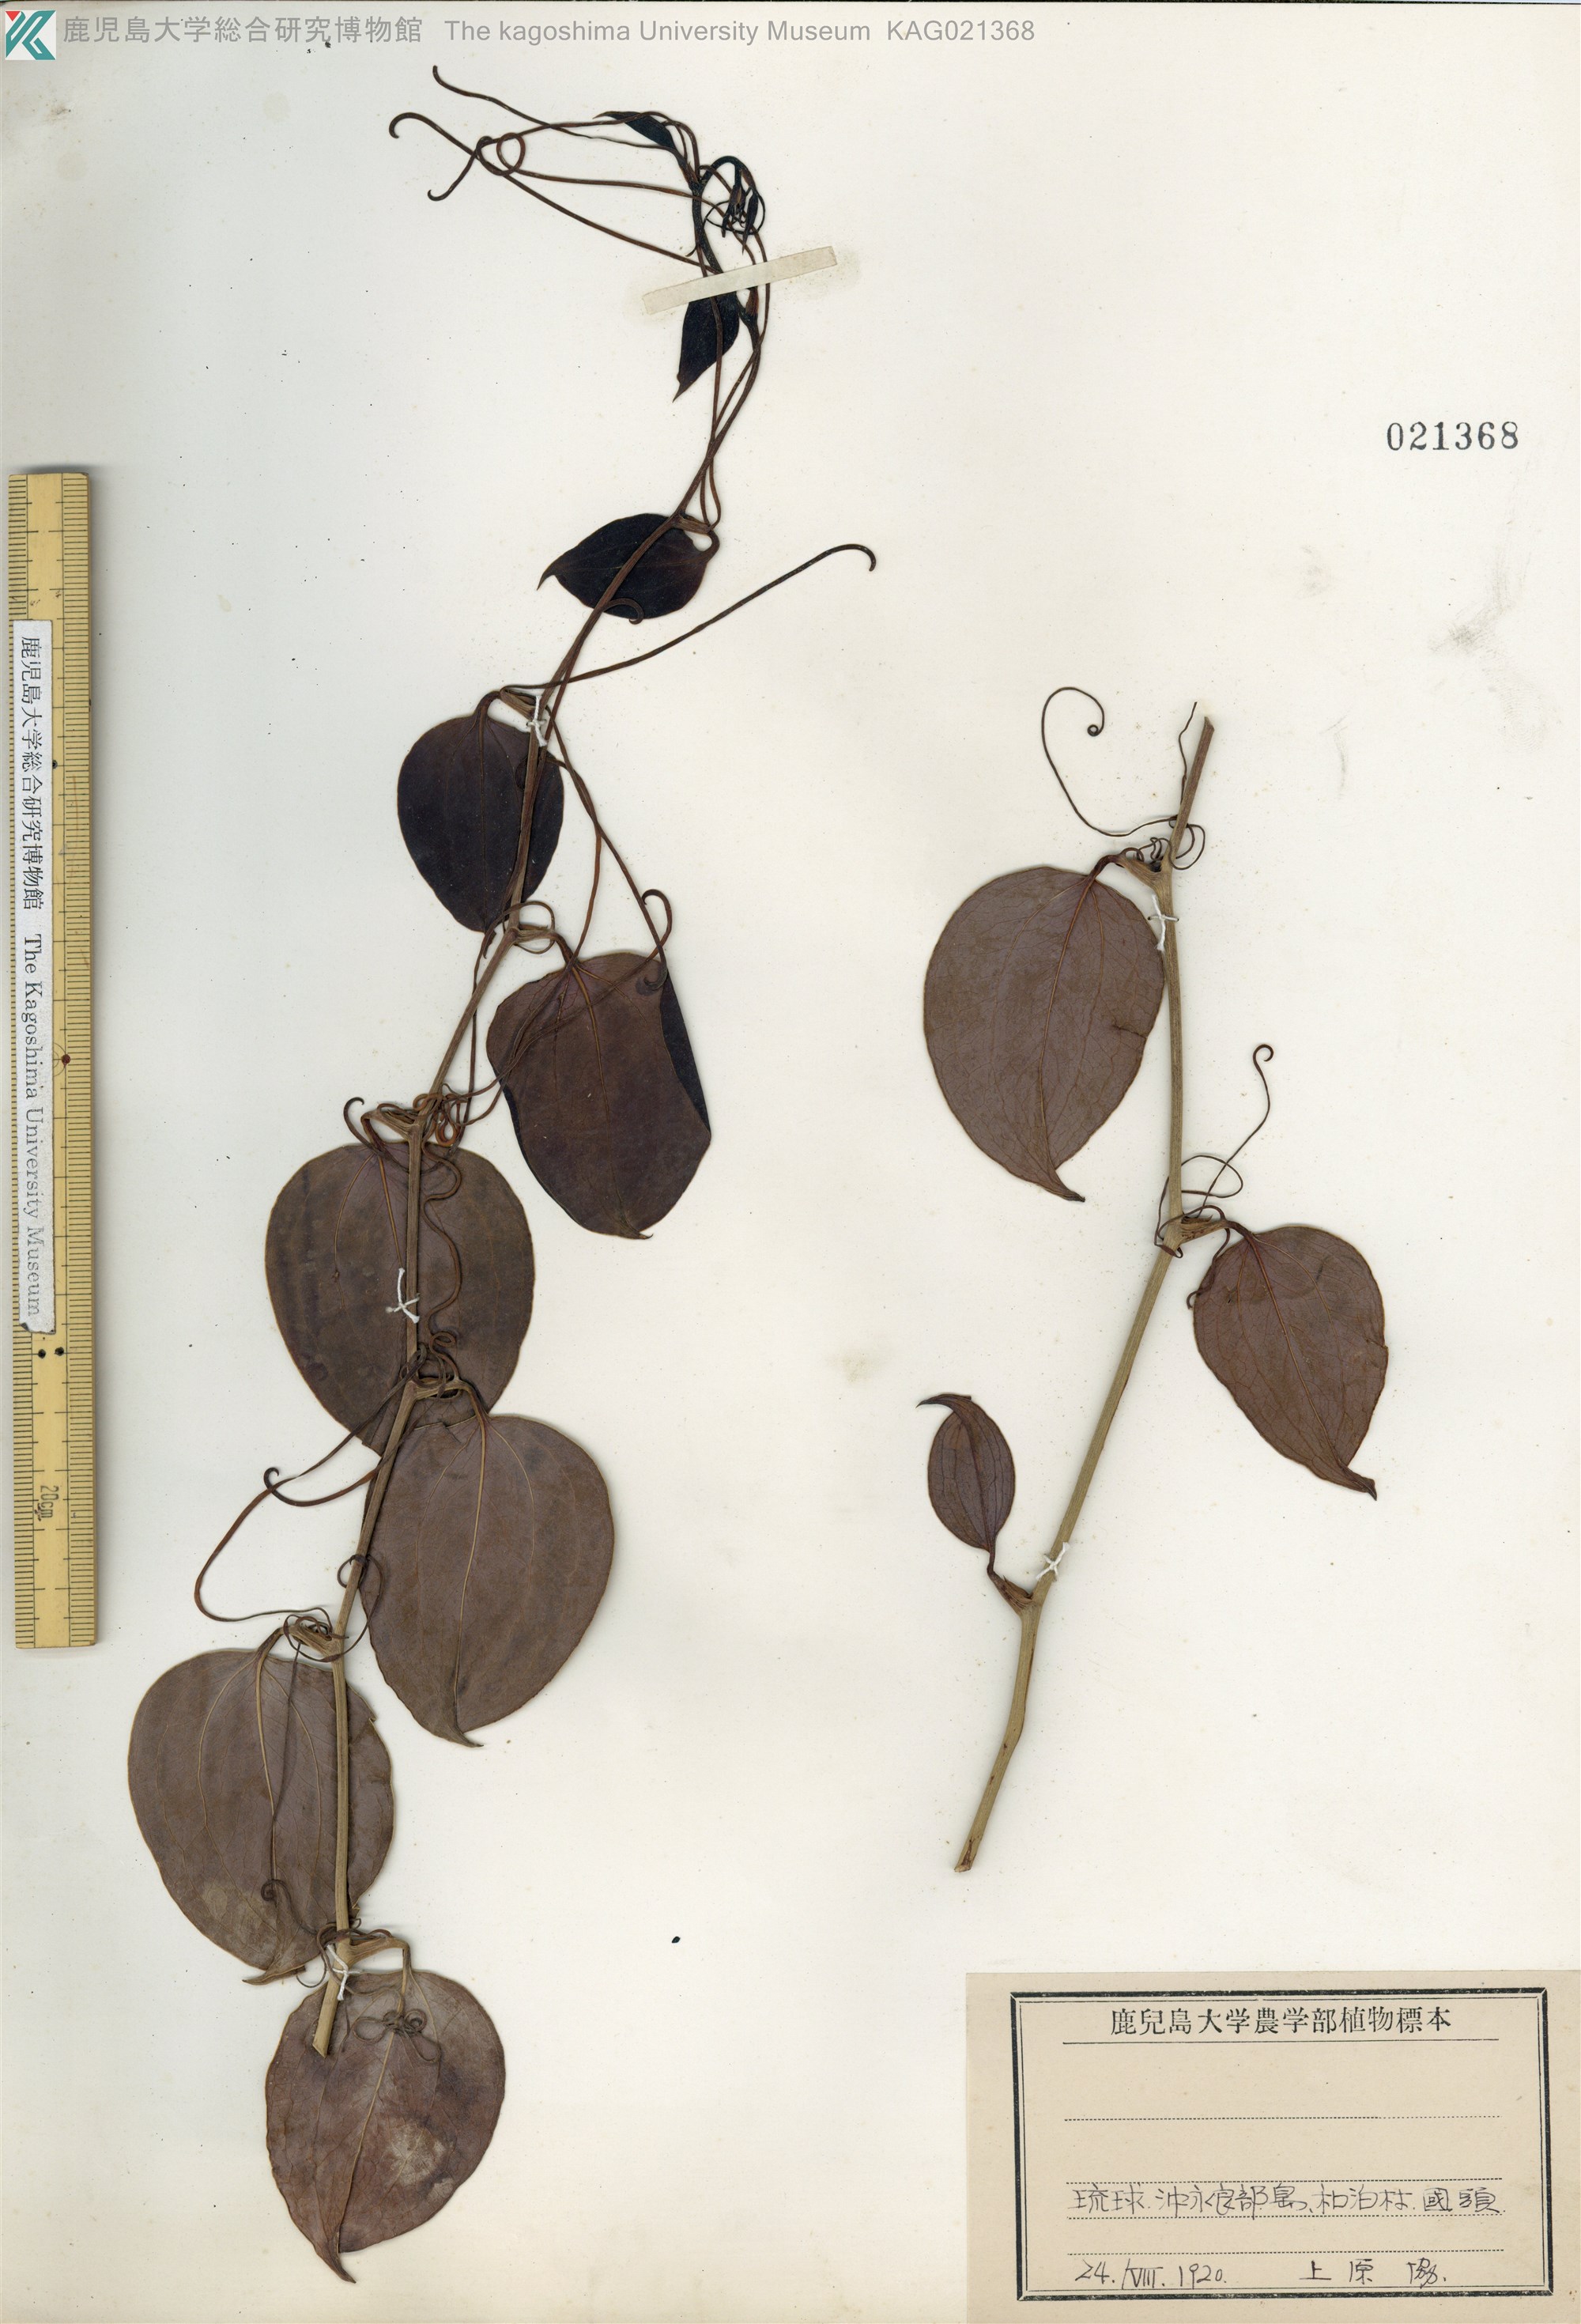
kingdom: Plantae
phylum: Tracheophyta
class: Liliopsida
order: Liliales
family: Smilacaceae
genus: Smilax
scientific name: Smilax sebeana
